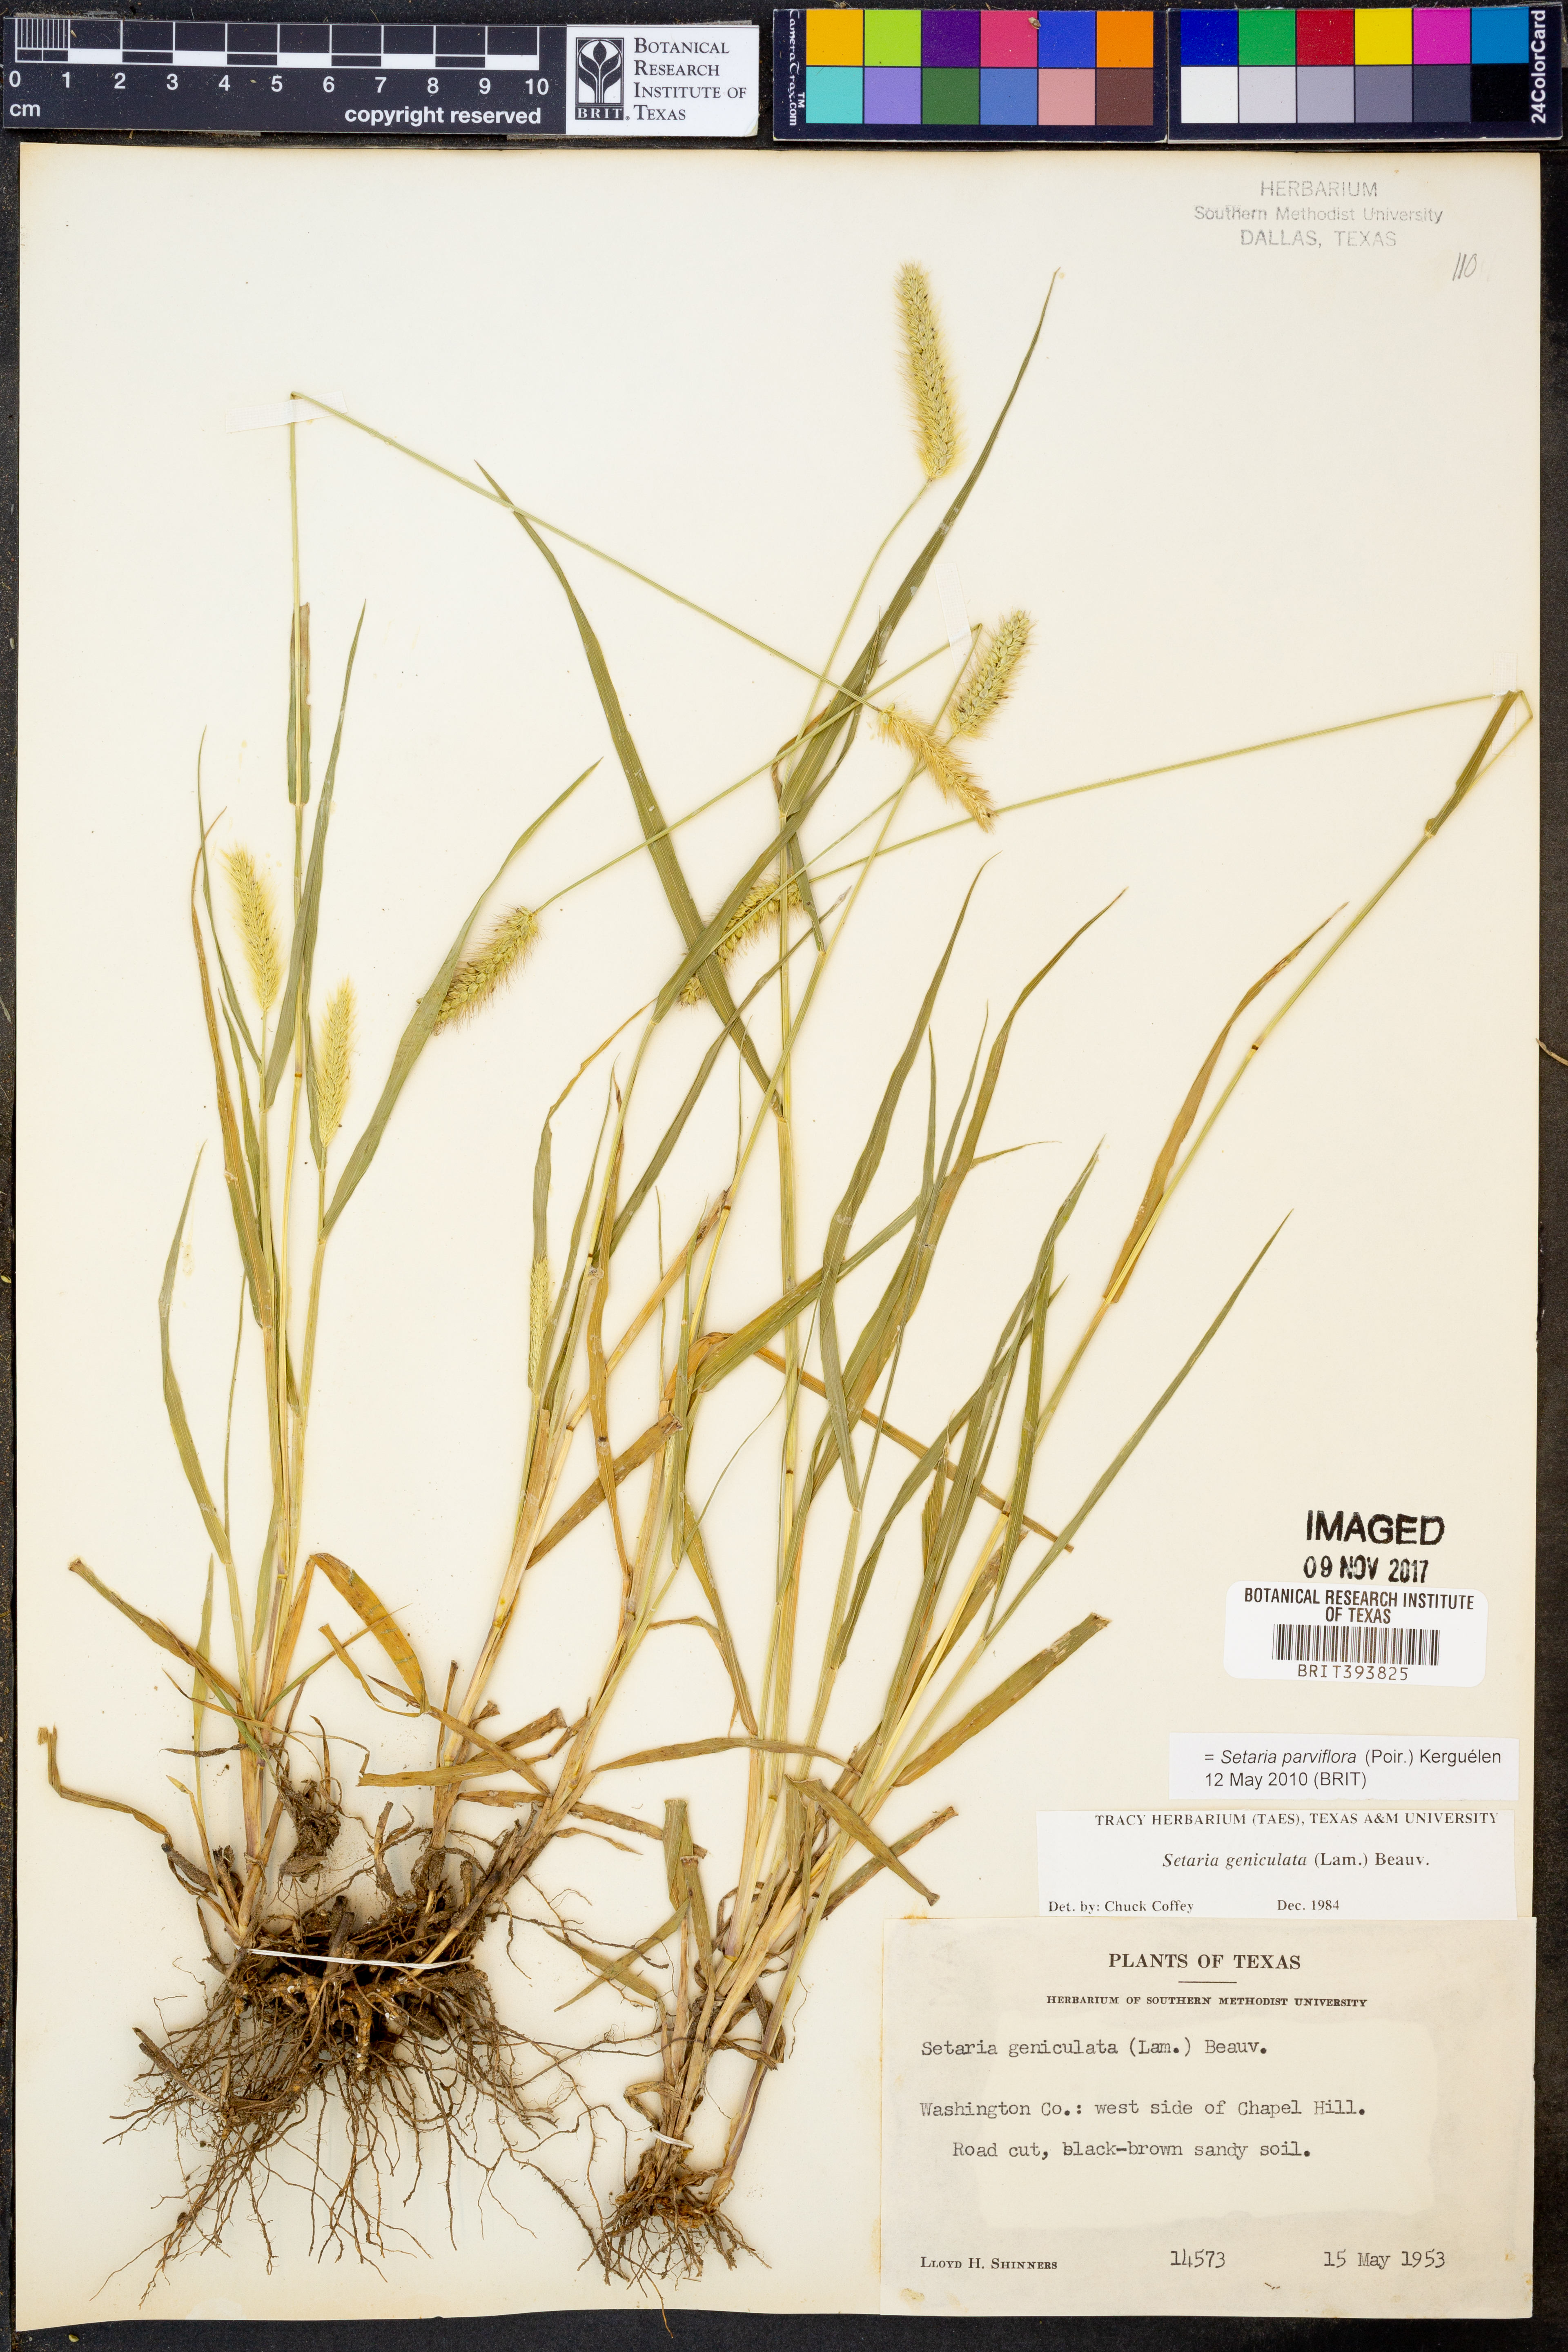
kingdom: Plantae
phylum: Tracheophyta
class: Liliopsida
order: Poales
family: Poaceae
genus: Setaria
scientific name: Setaria parviflora
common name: Knotroot bristle-grass
